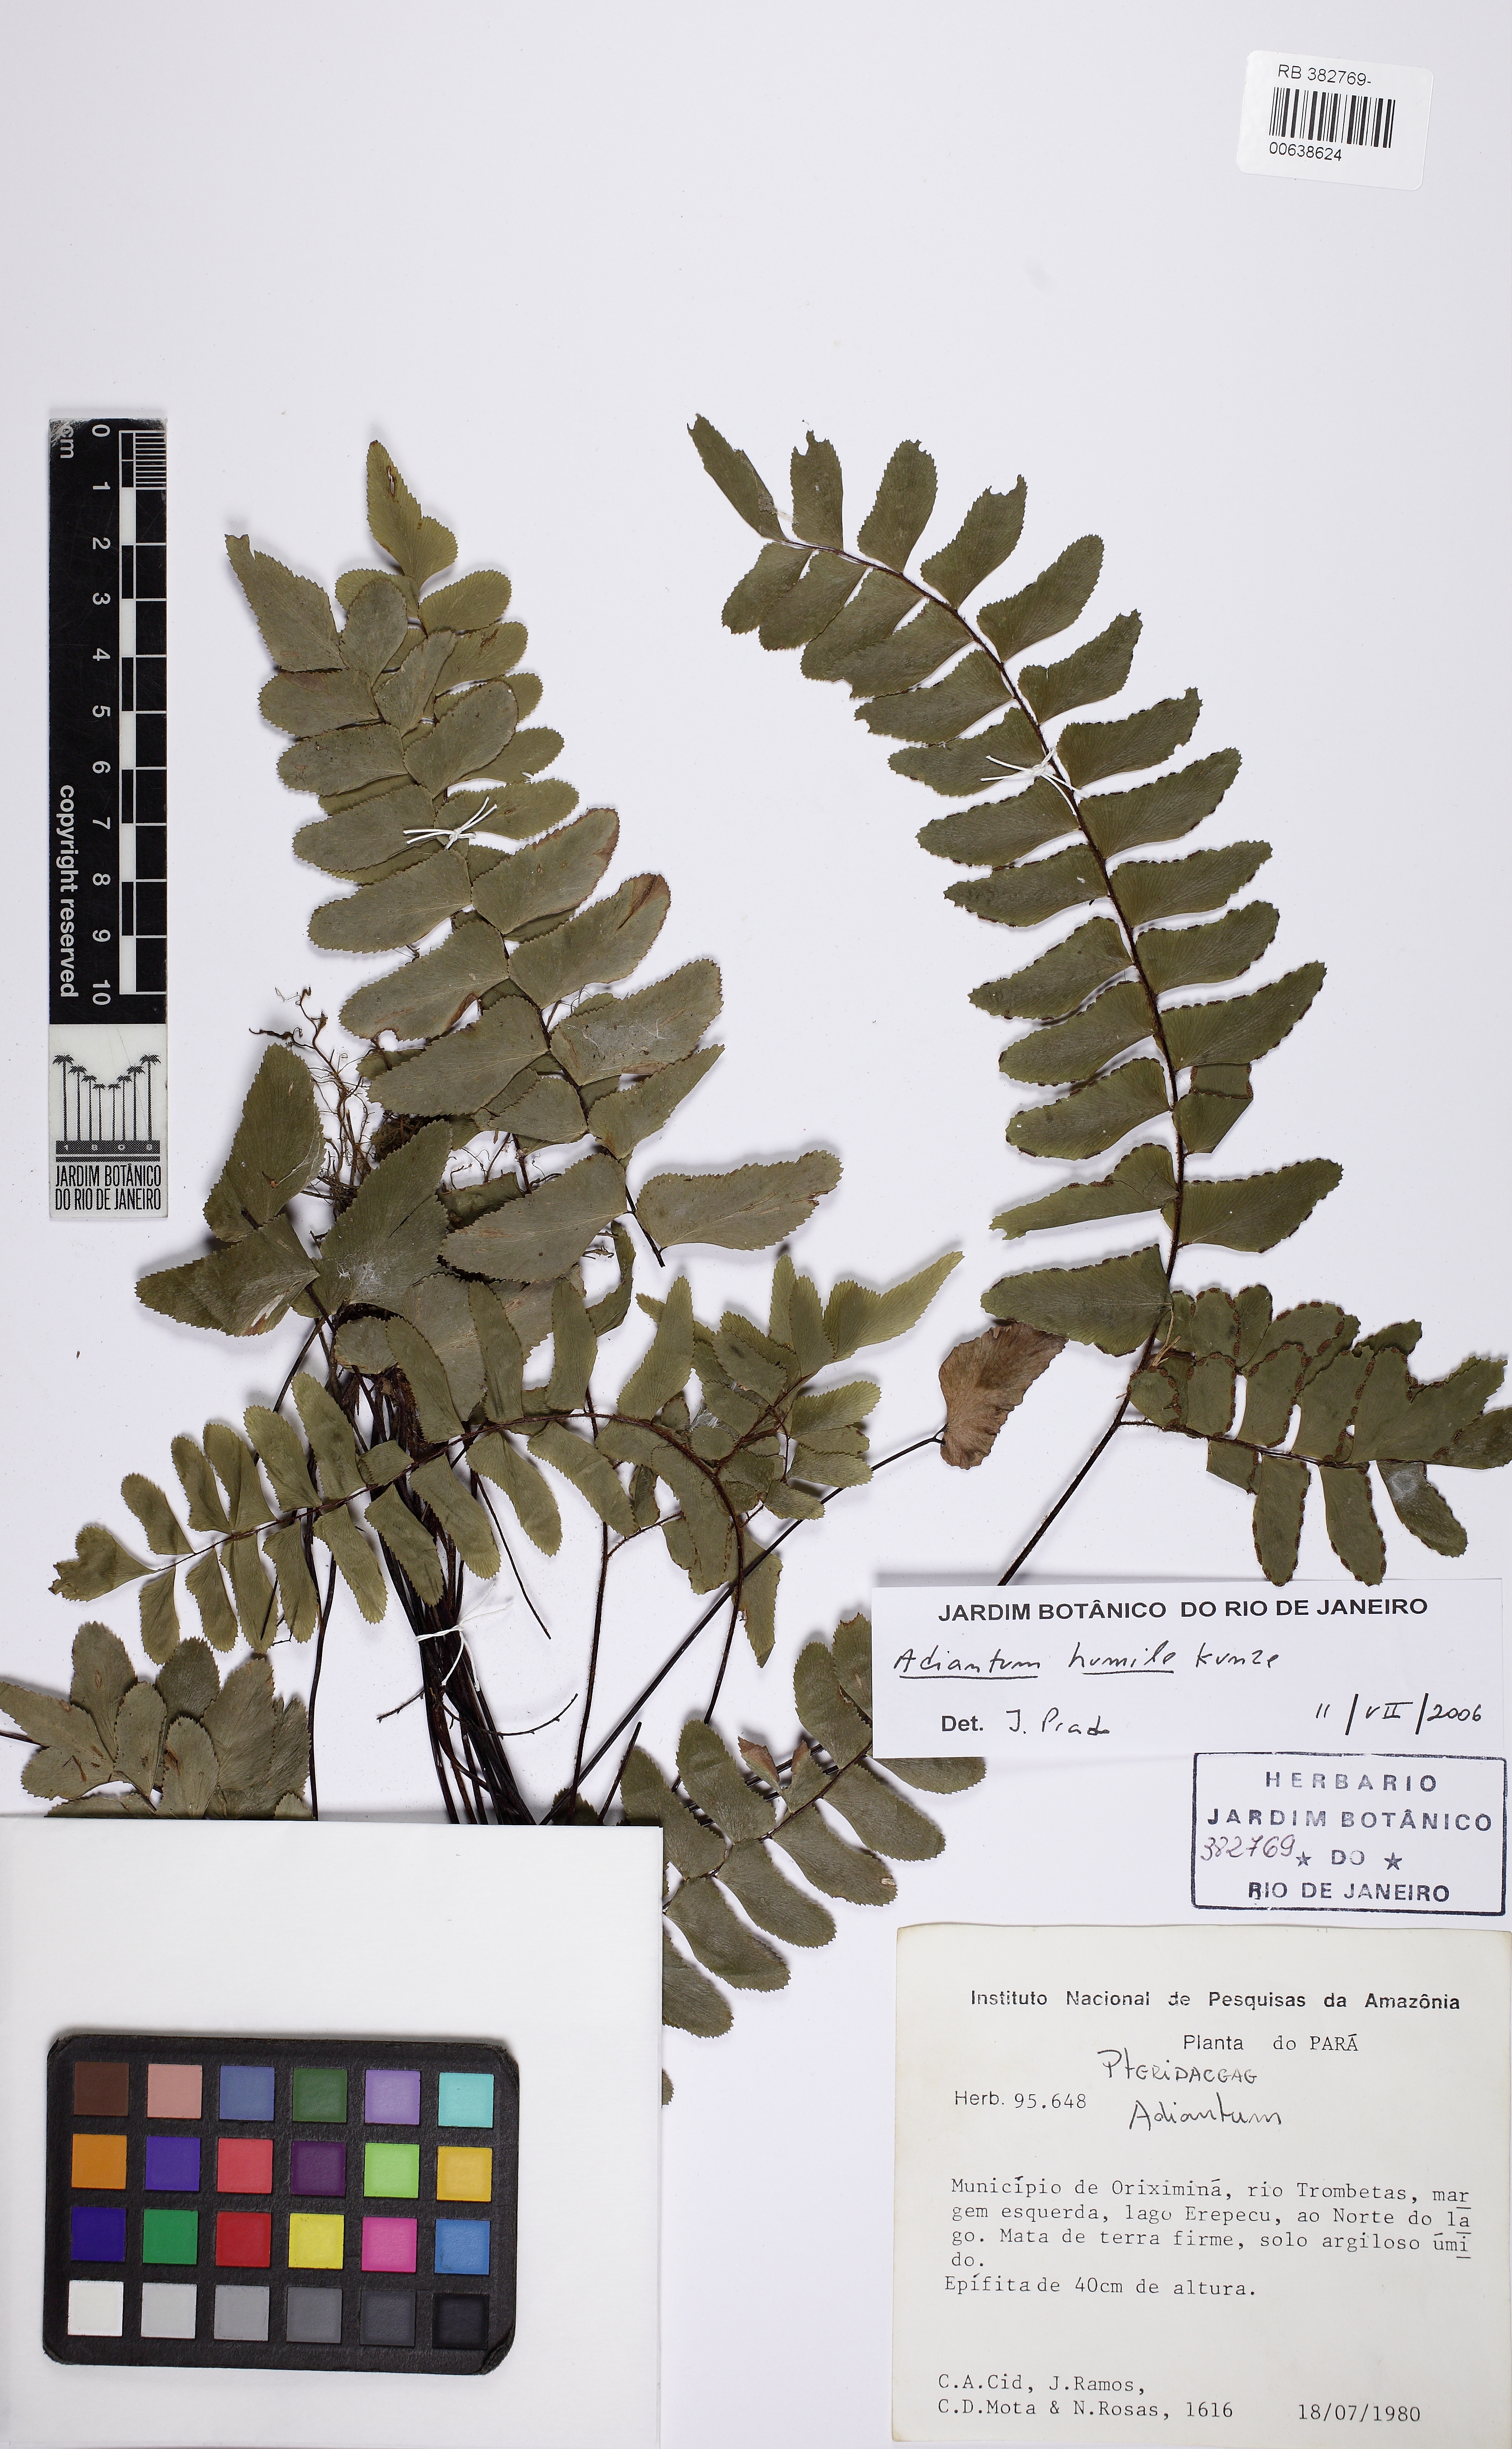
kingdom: Plantae
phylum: Tracheophyta
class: Polypodiopsida
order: Polypodiales
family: Pteridaceae
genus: Adiantum
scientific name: Adiantum humile
